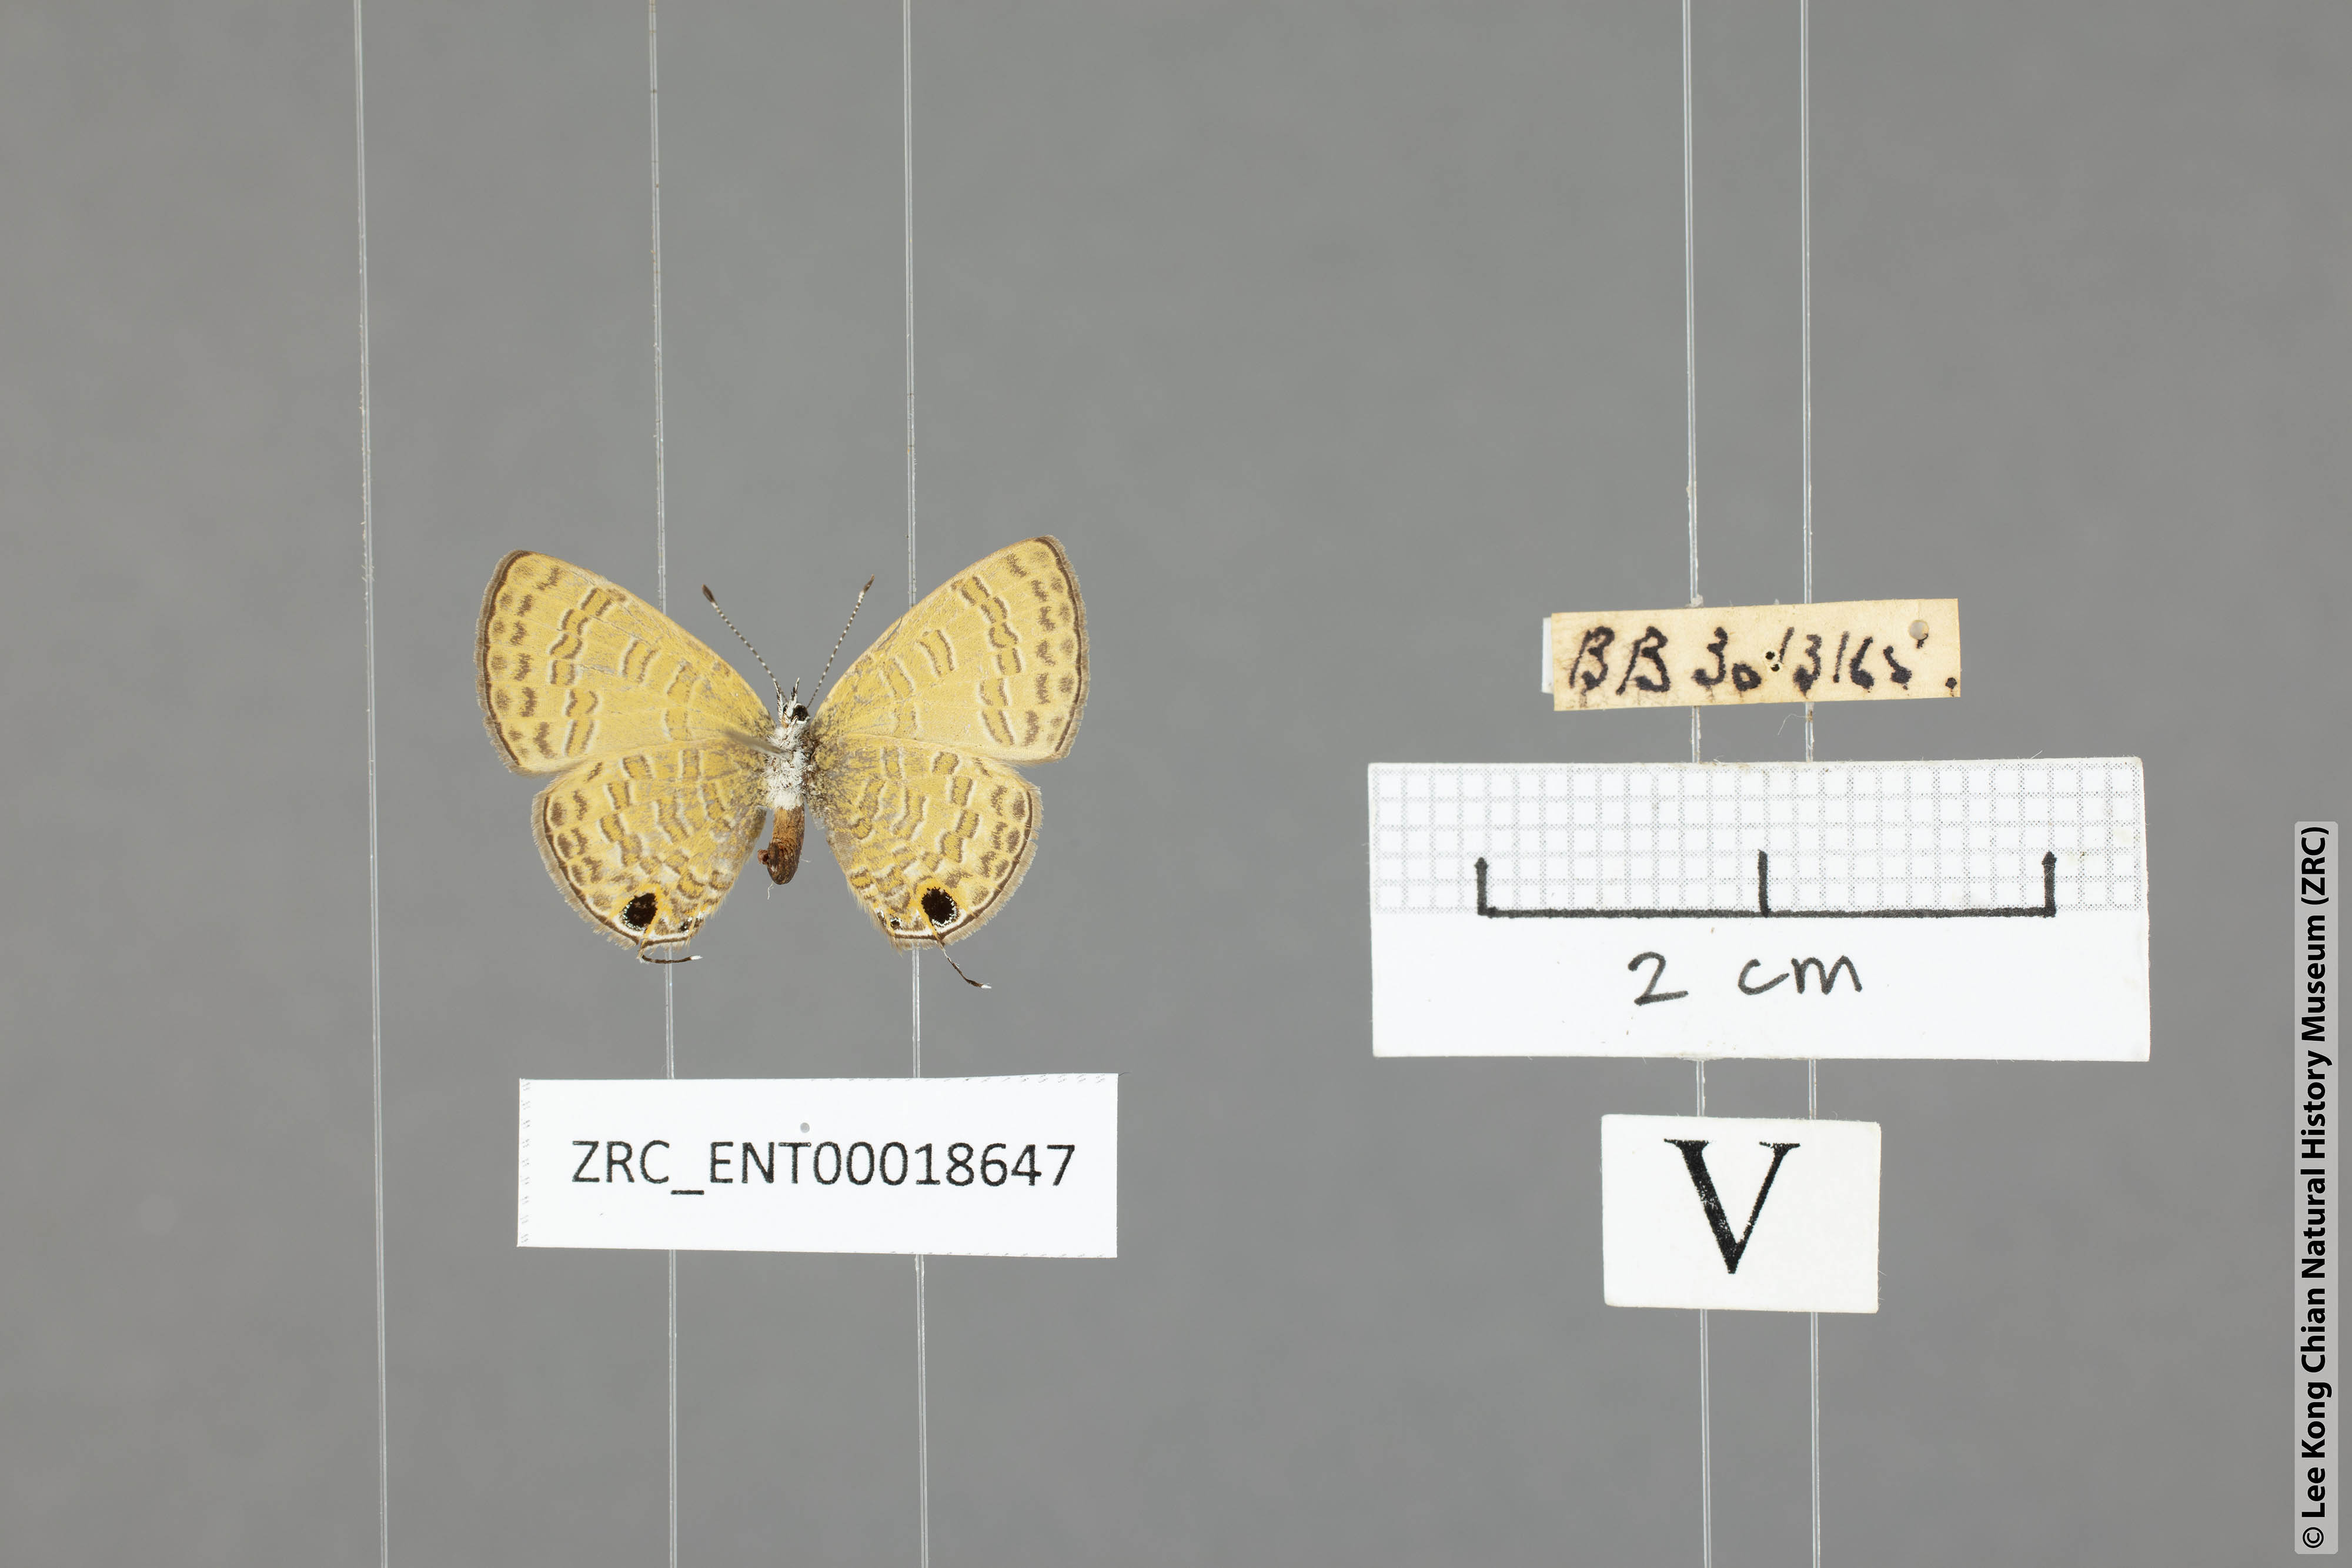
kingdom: Animalia
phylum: Arthropoda
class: Insecta
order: Lepidoptera
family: Lycaenidae
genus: Prosotas
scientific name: Prosotas nora
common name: Common line blue
